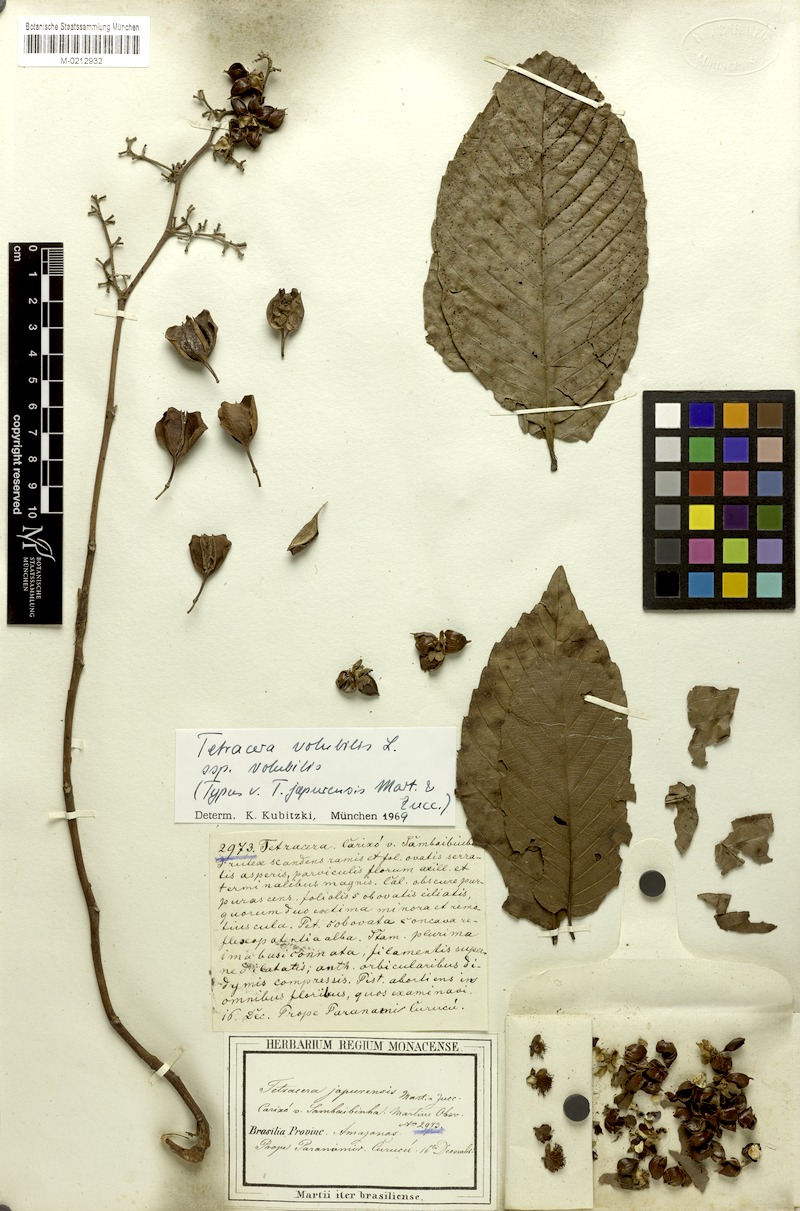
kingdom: Plantae
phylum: Tracheophyta
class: Magnoliopsida
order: Dilleniales
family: Dilleniaceae
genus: Tetracera
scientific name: Tetracera volubilis
